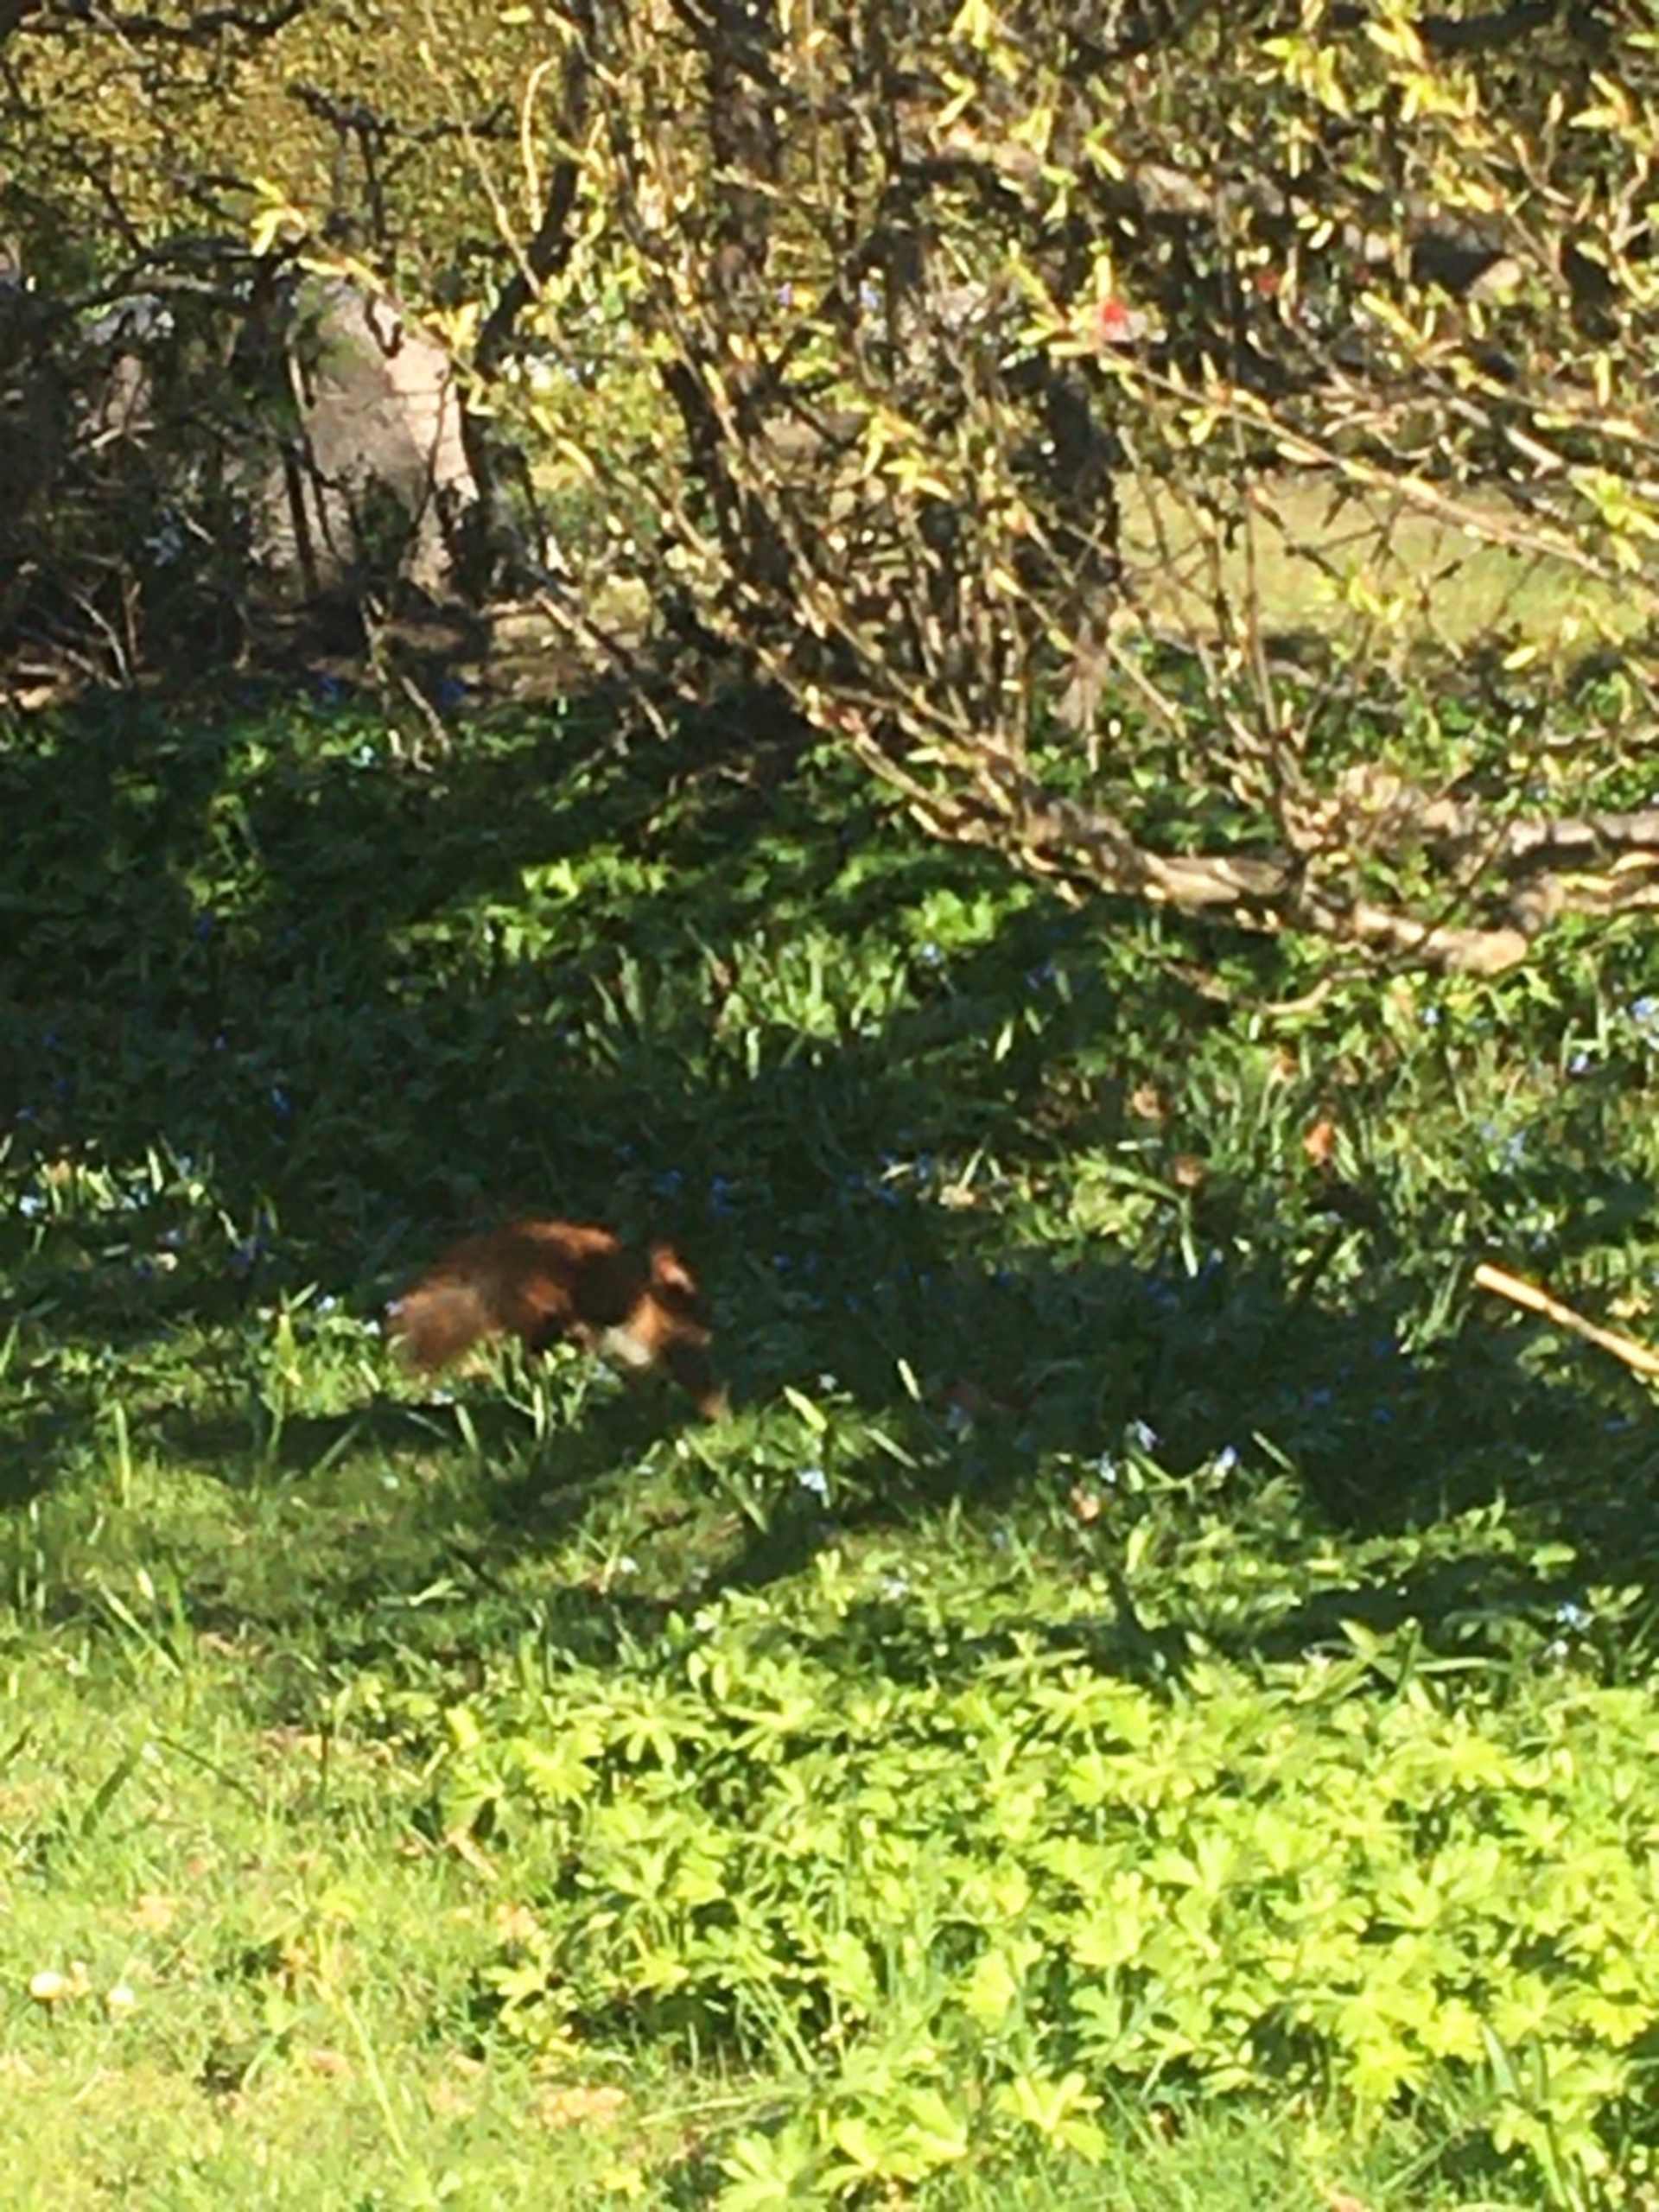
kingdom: Animalia
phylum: Chordata
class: Mammalia
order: Rodentia
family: Sciuridae
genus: Sciurus
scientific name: Sciurus vulgaris
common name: Egern
